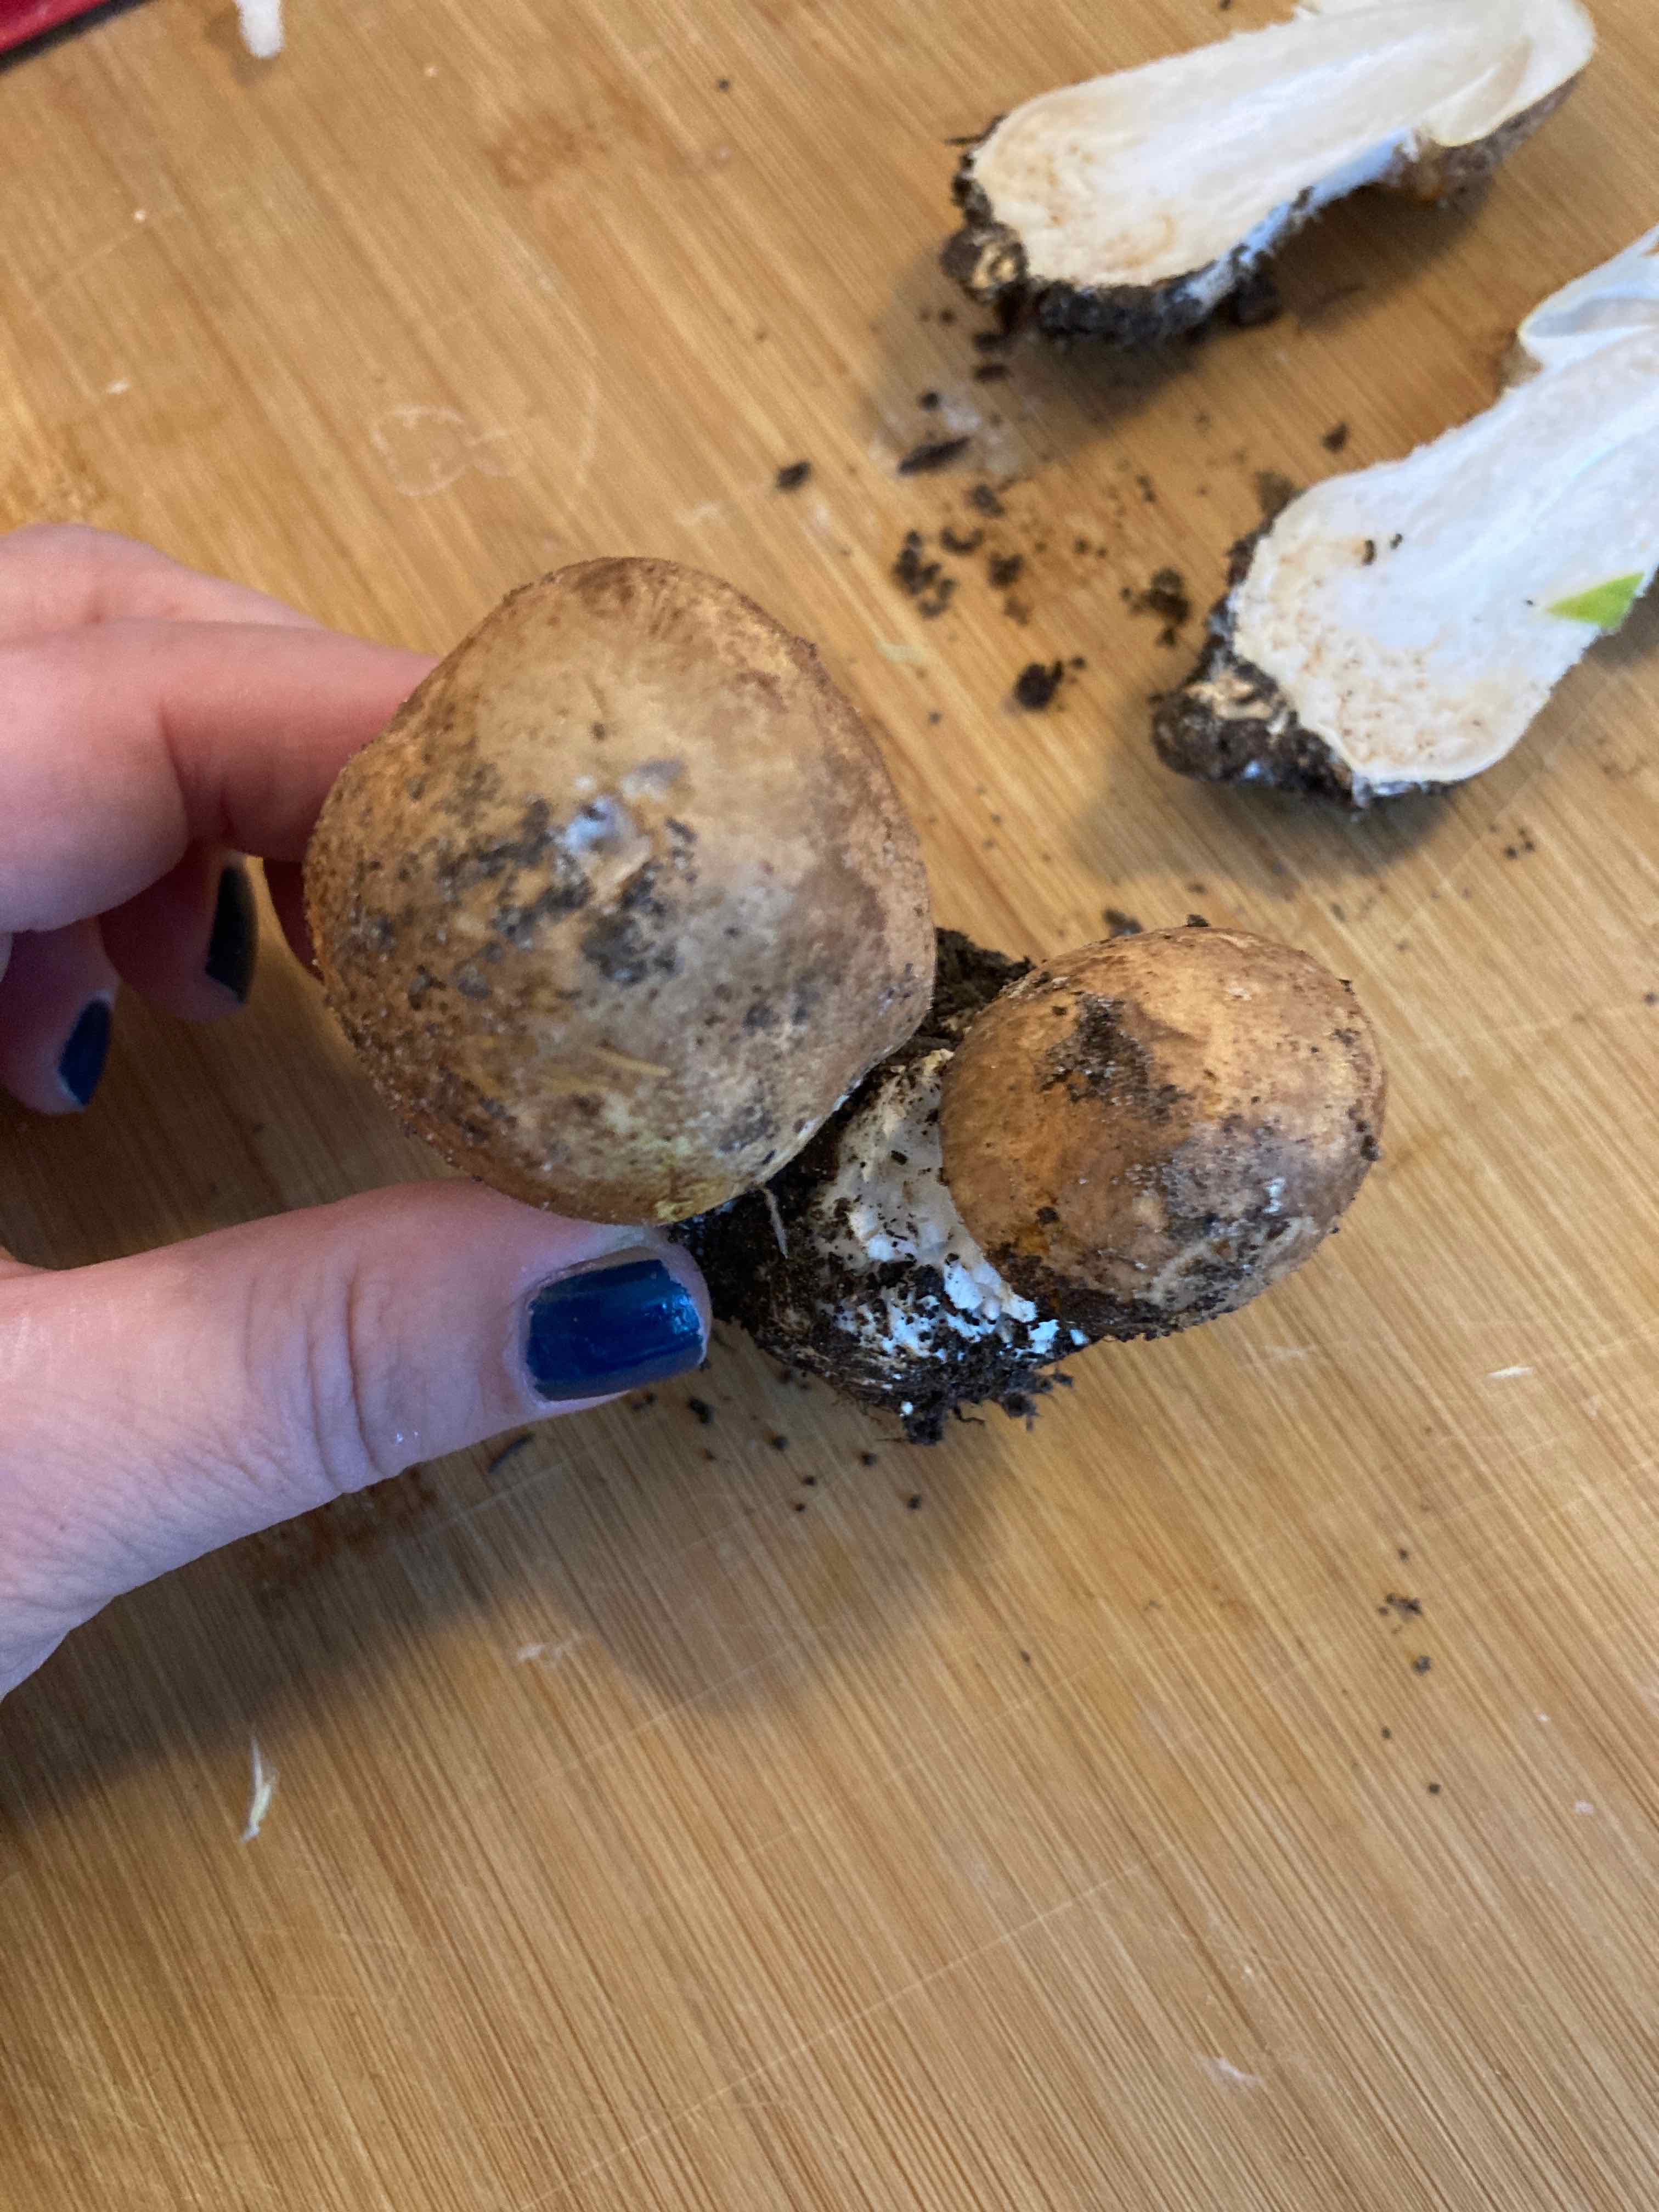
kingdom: Fungi
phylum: Basidiomycota
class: Agaricomycetes
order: Agaricales
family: Agaricaceae
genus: Agaricus
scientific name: Agaricus
